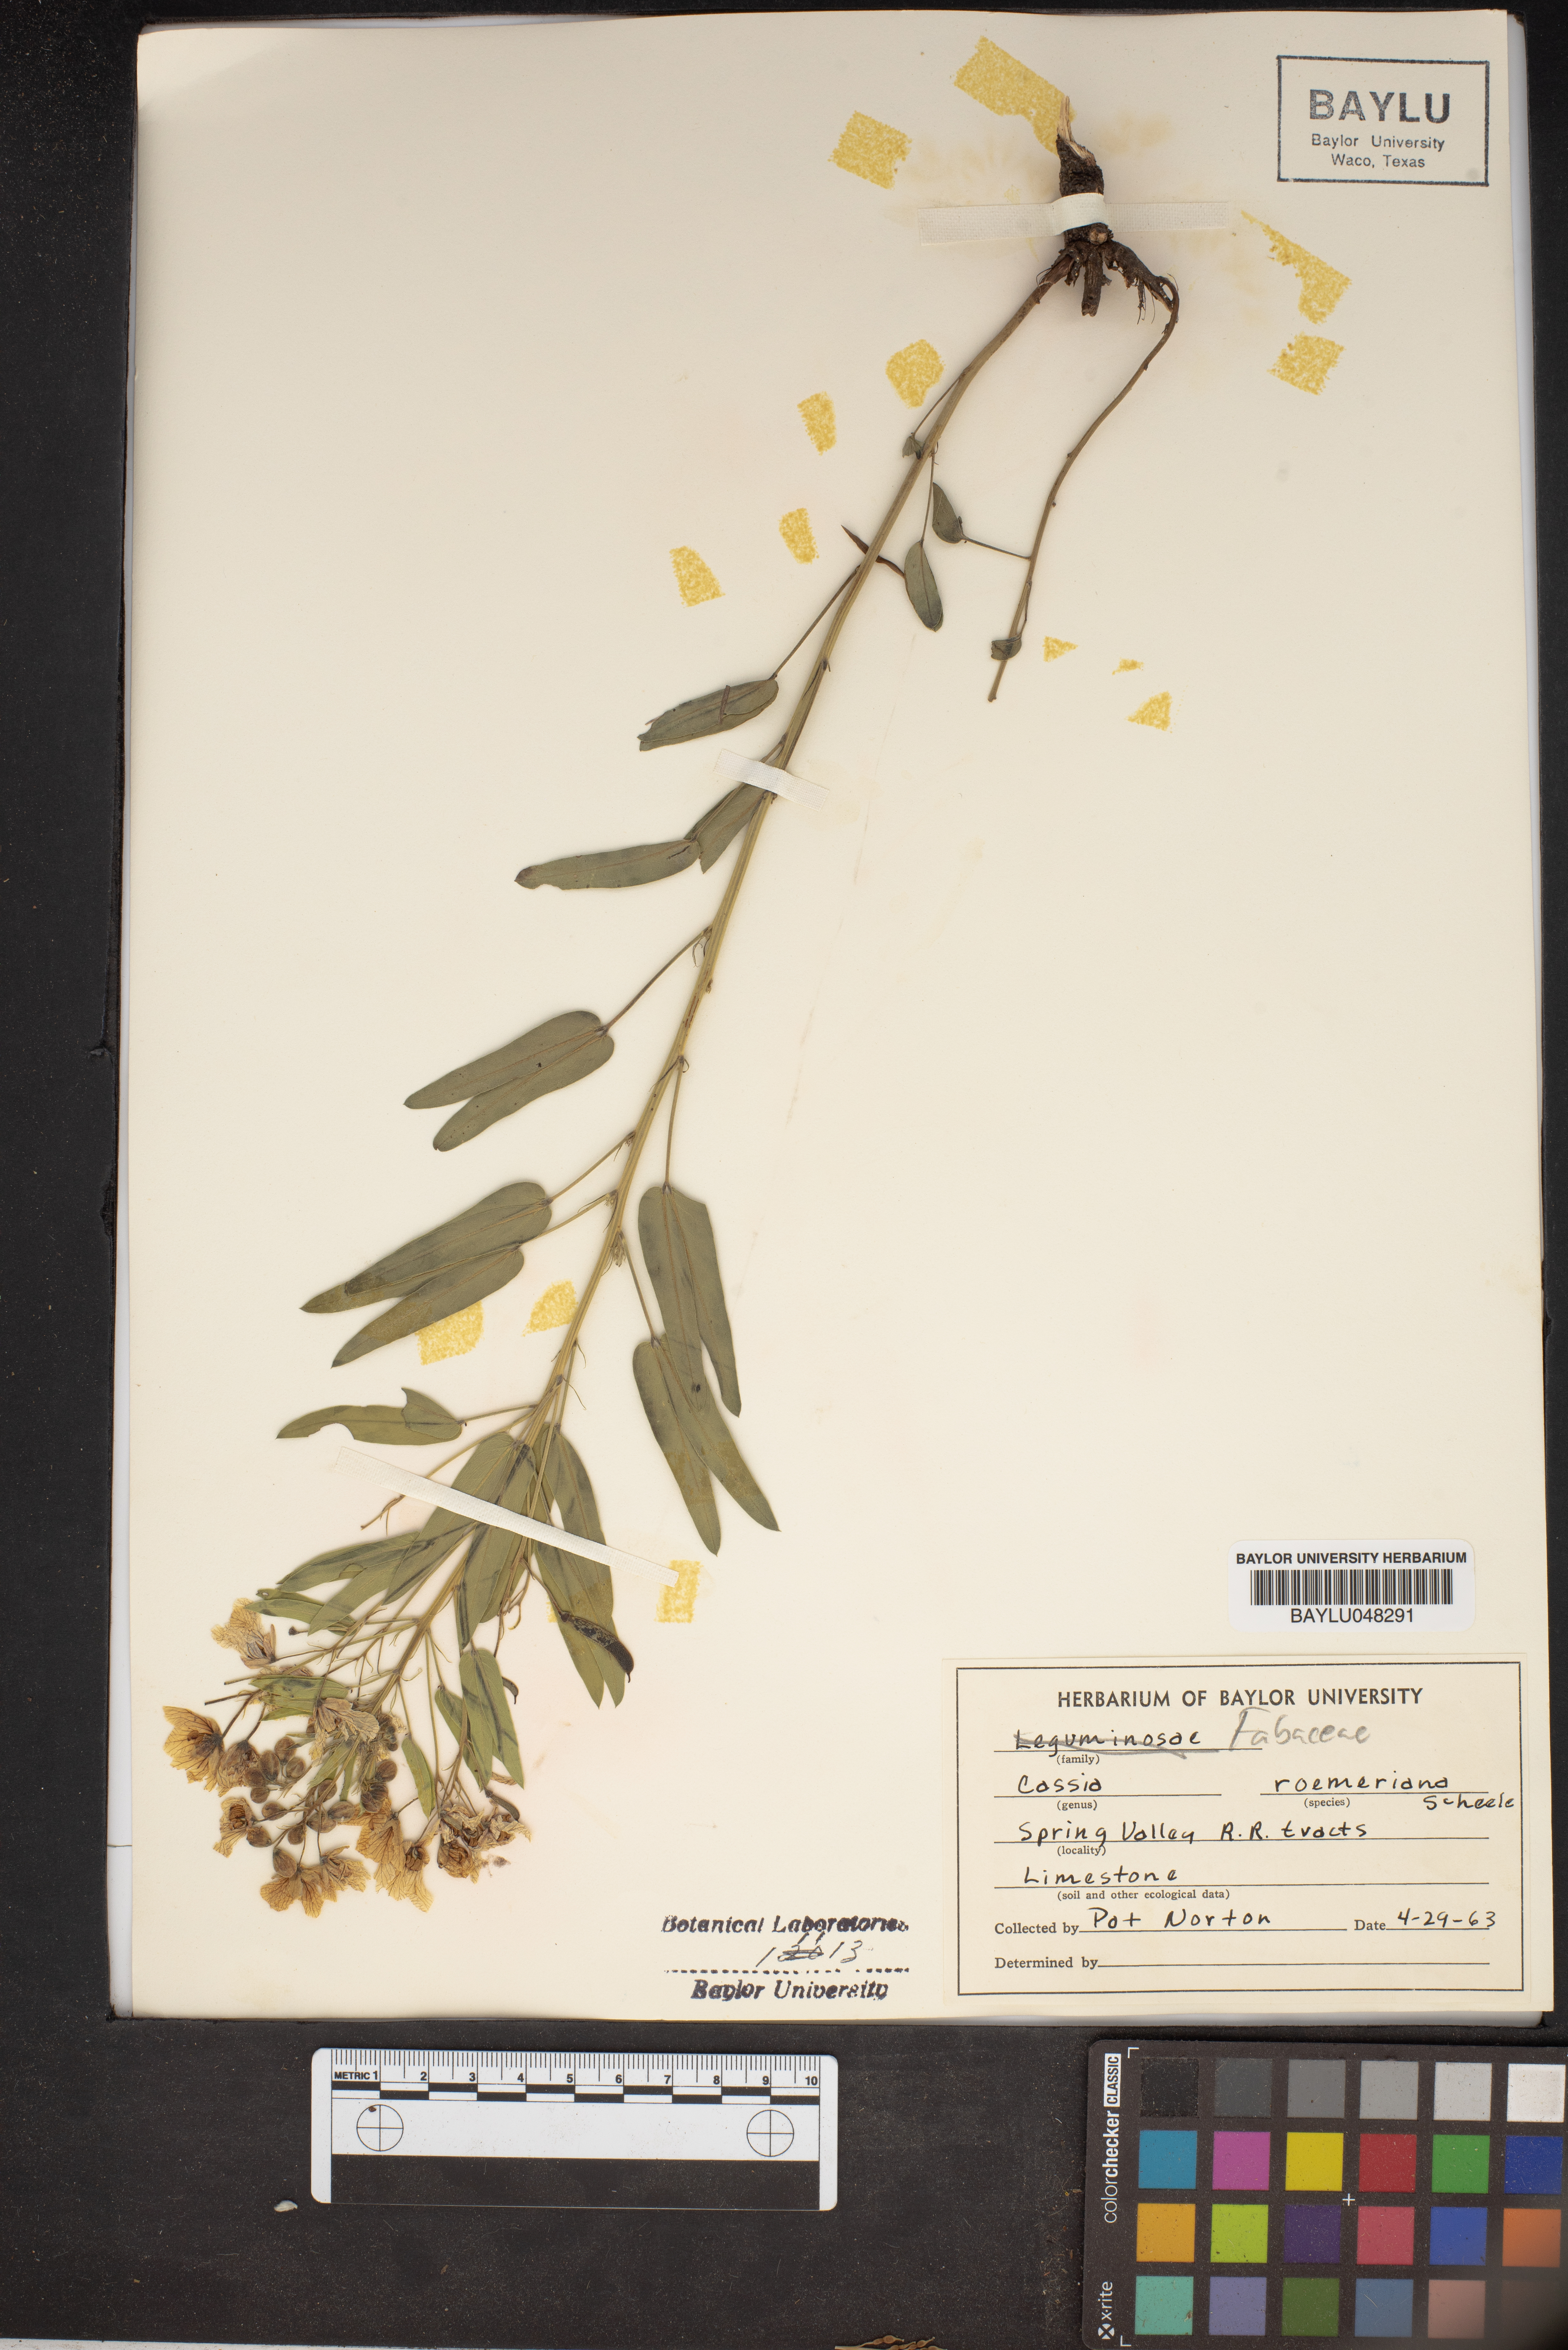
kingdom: Plantae
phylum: Tracheophyta
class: Magnoliopsida
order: Fabales
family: Fabaceae
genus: Senna
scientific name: Senna roemeriana
